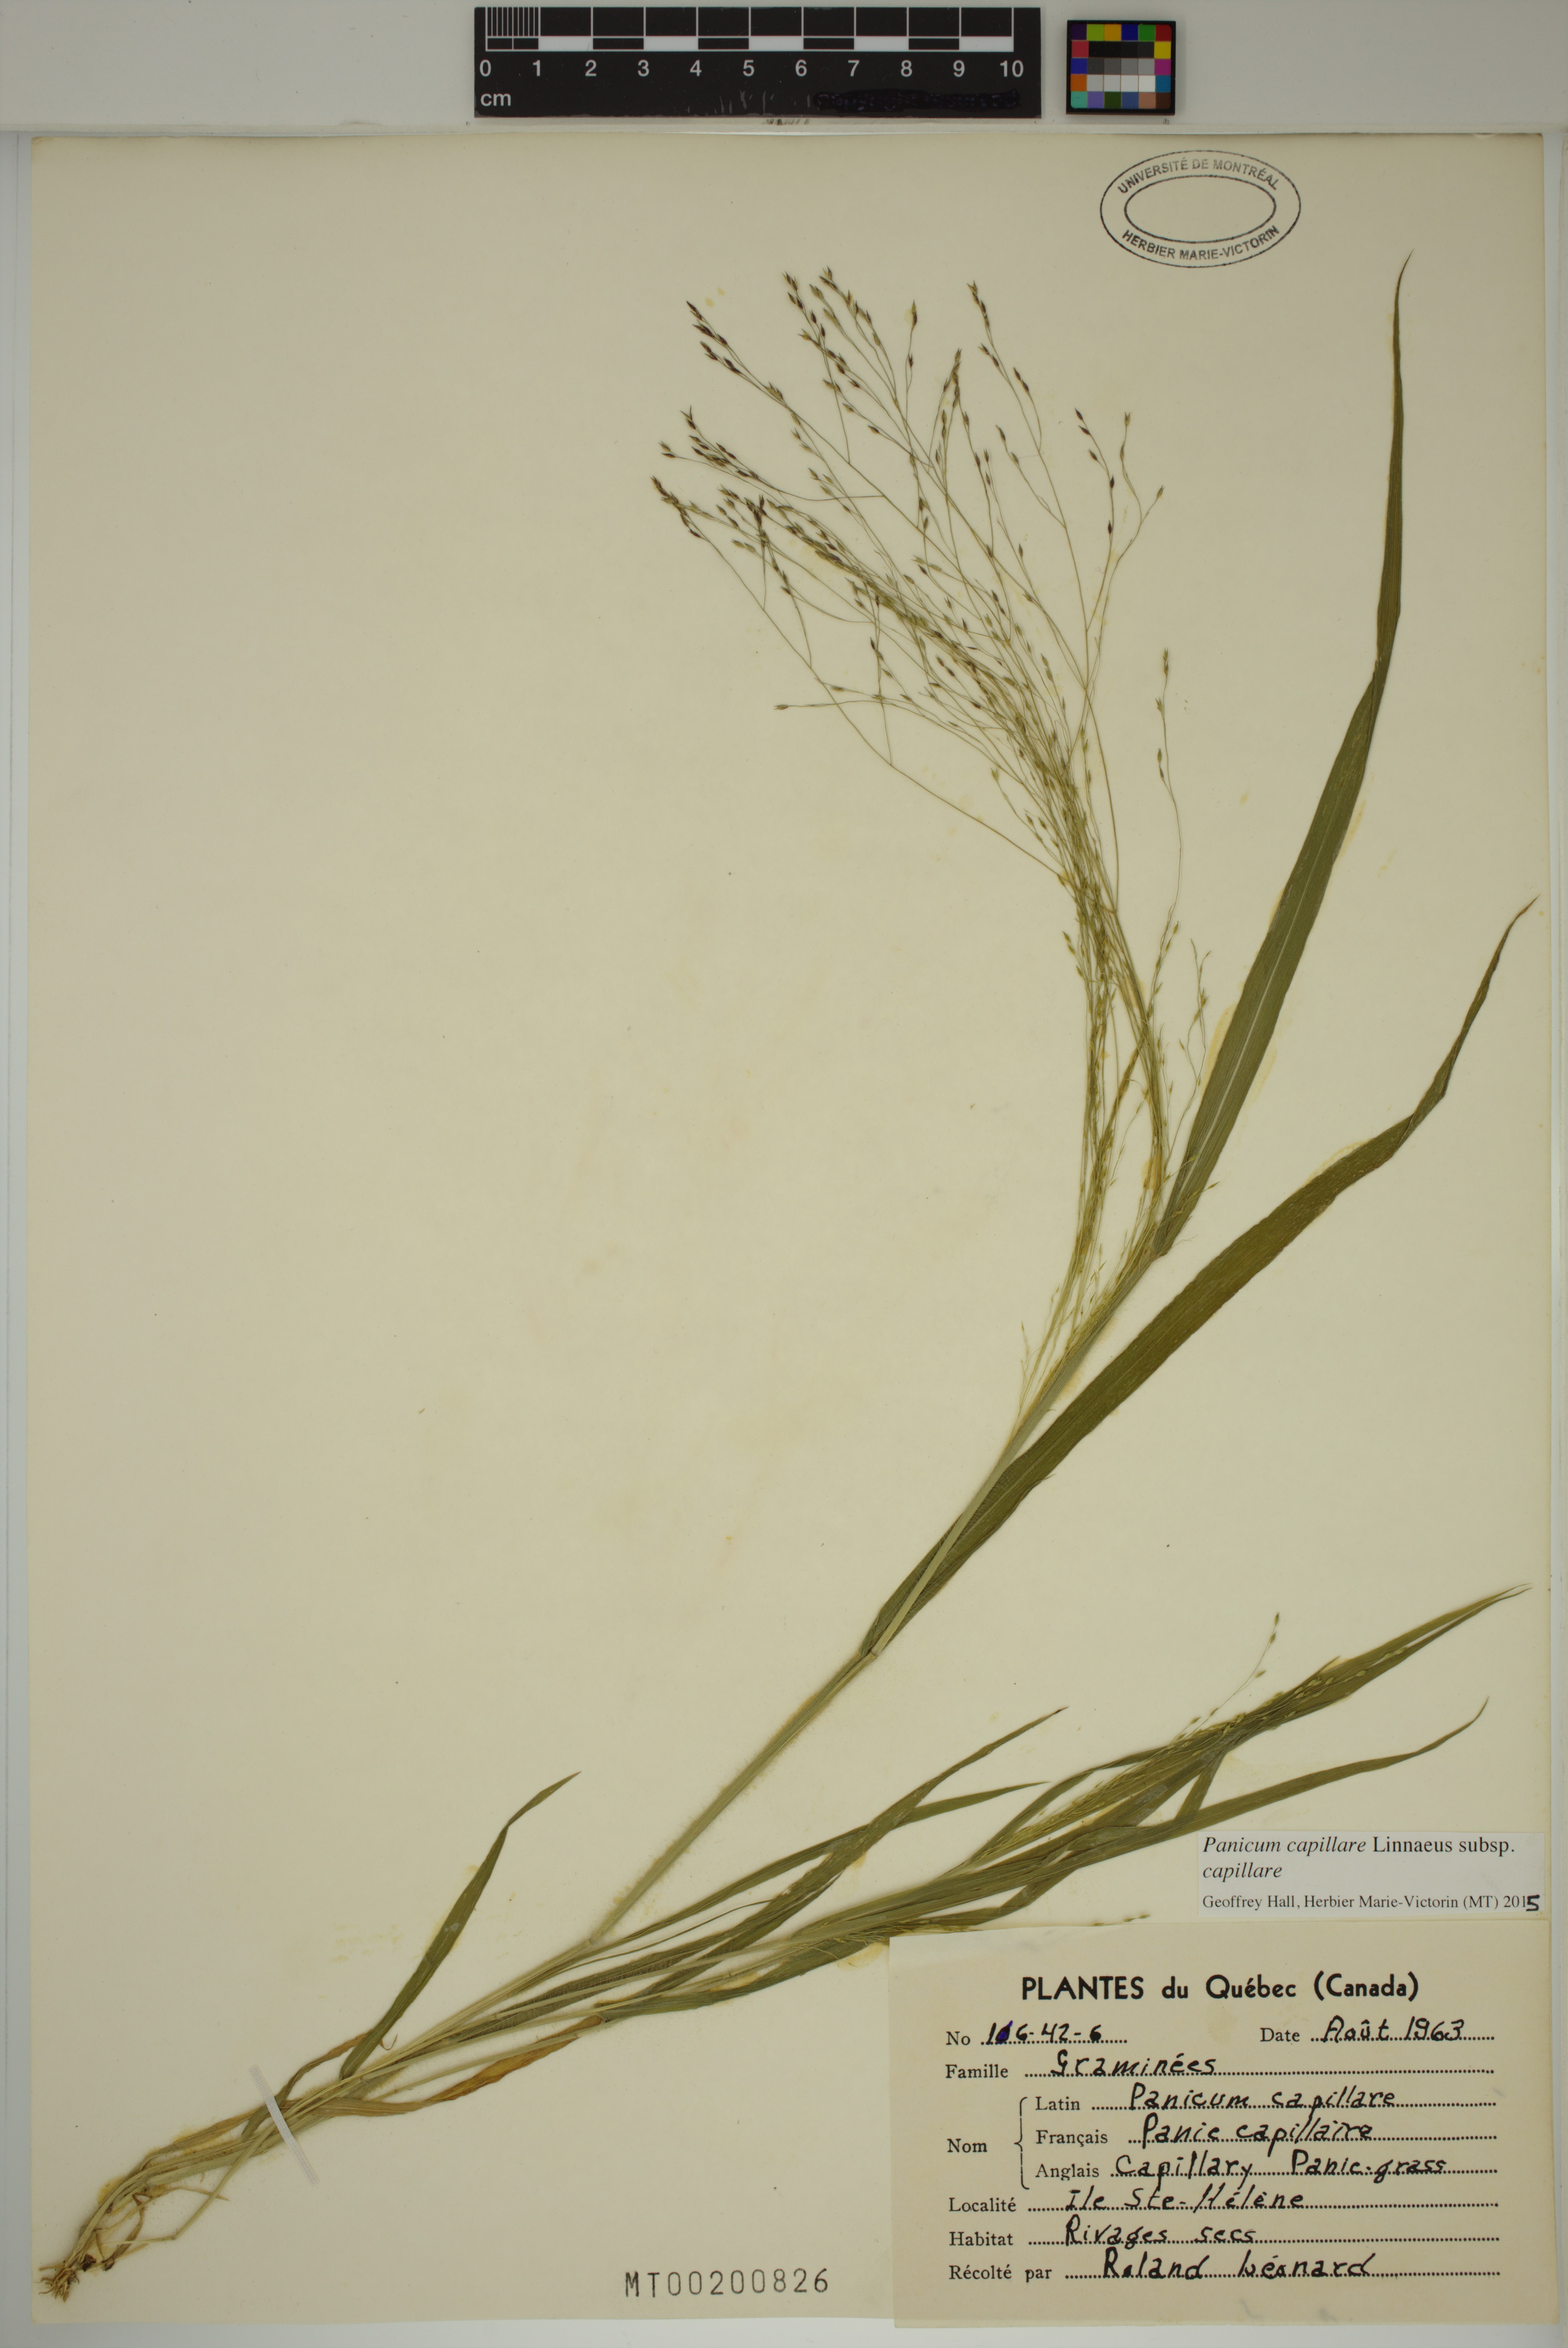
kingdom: Plantae
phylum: Tracheophyta
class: Liliopsida
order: Poales
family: Poaceae
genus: Panicum
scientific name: Panicum capillare
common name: Witch-grass
